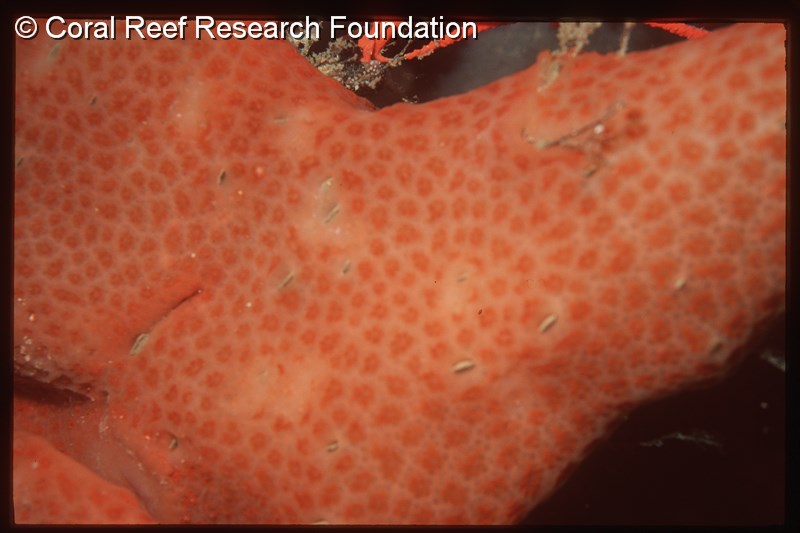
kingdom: Animalia
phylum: Chordata
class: Ascidiacea
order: Aplousobranchia
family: Polyclinidae
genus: Aplidium
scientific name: Aplidium mernooensis
